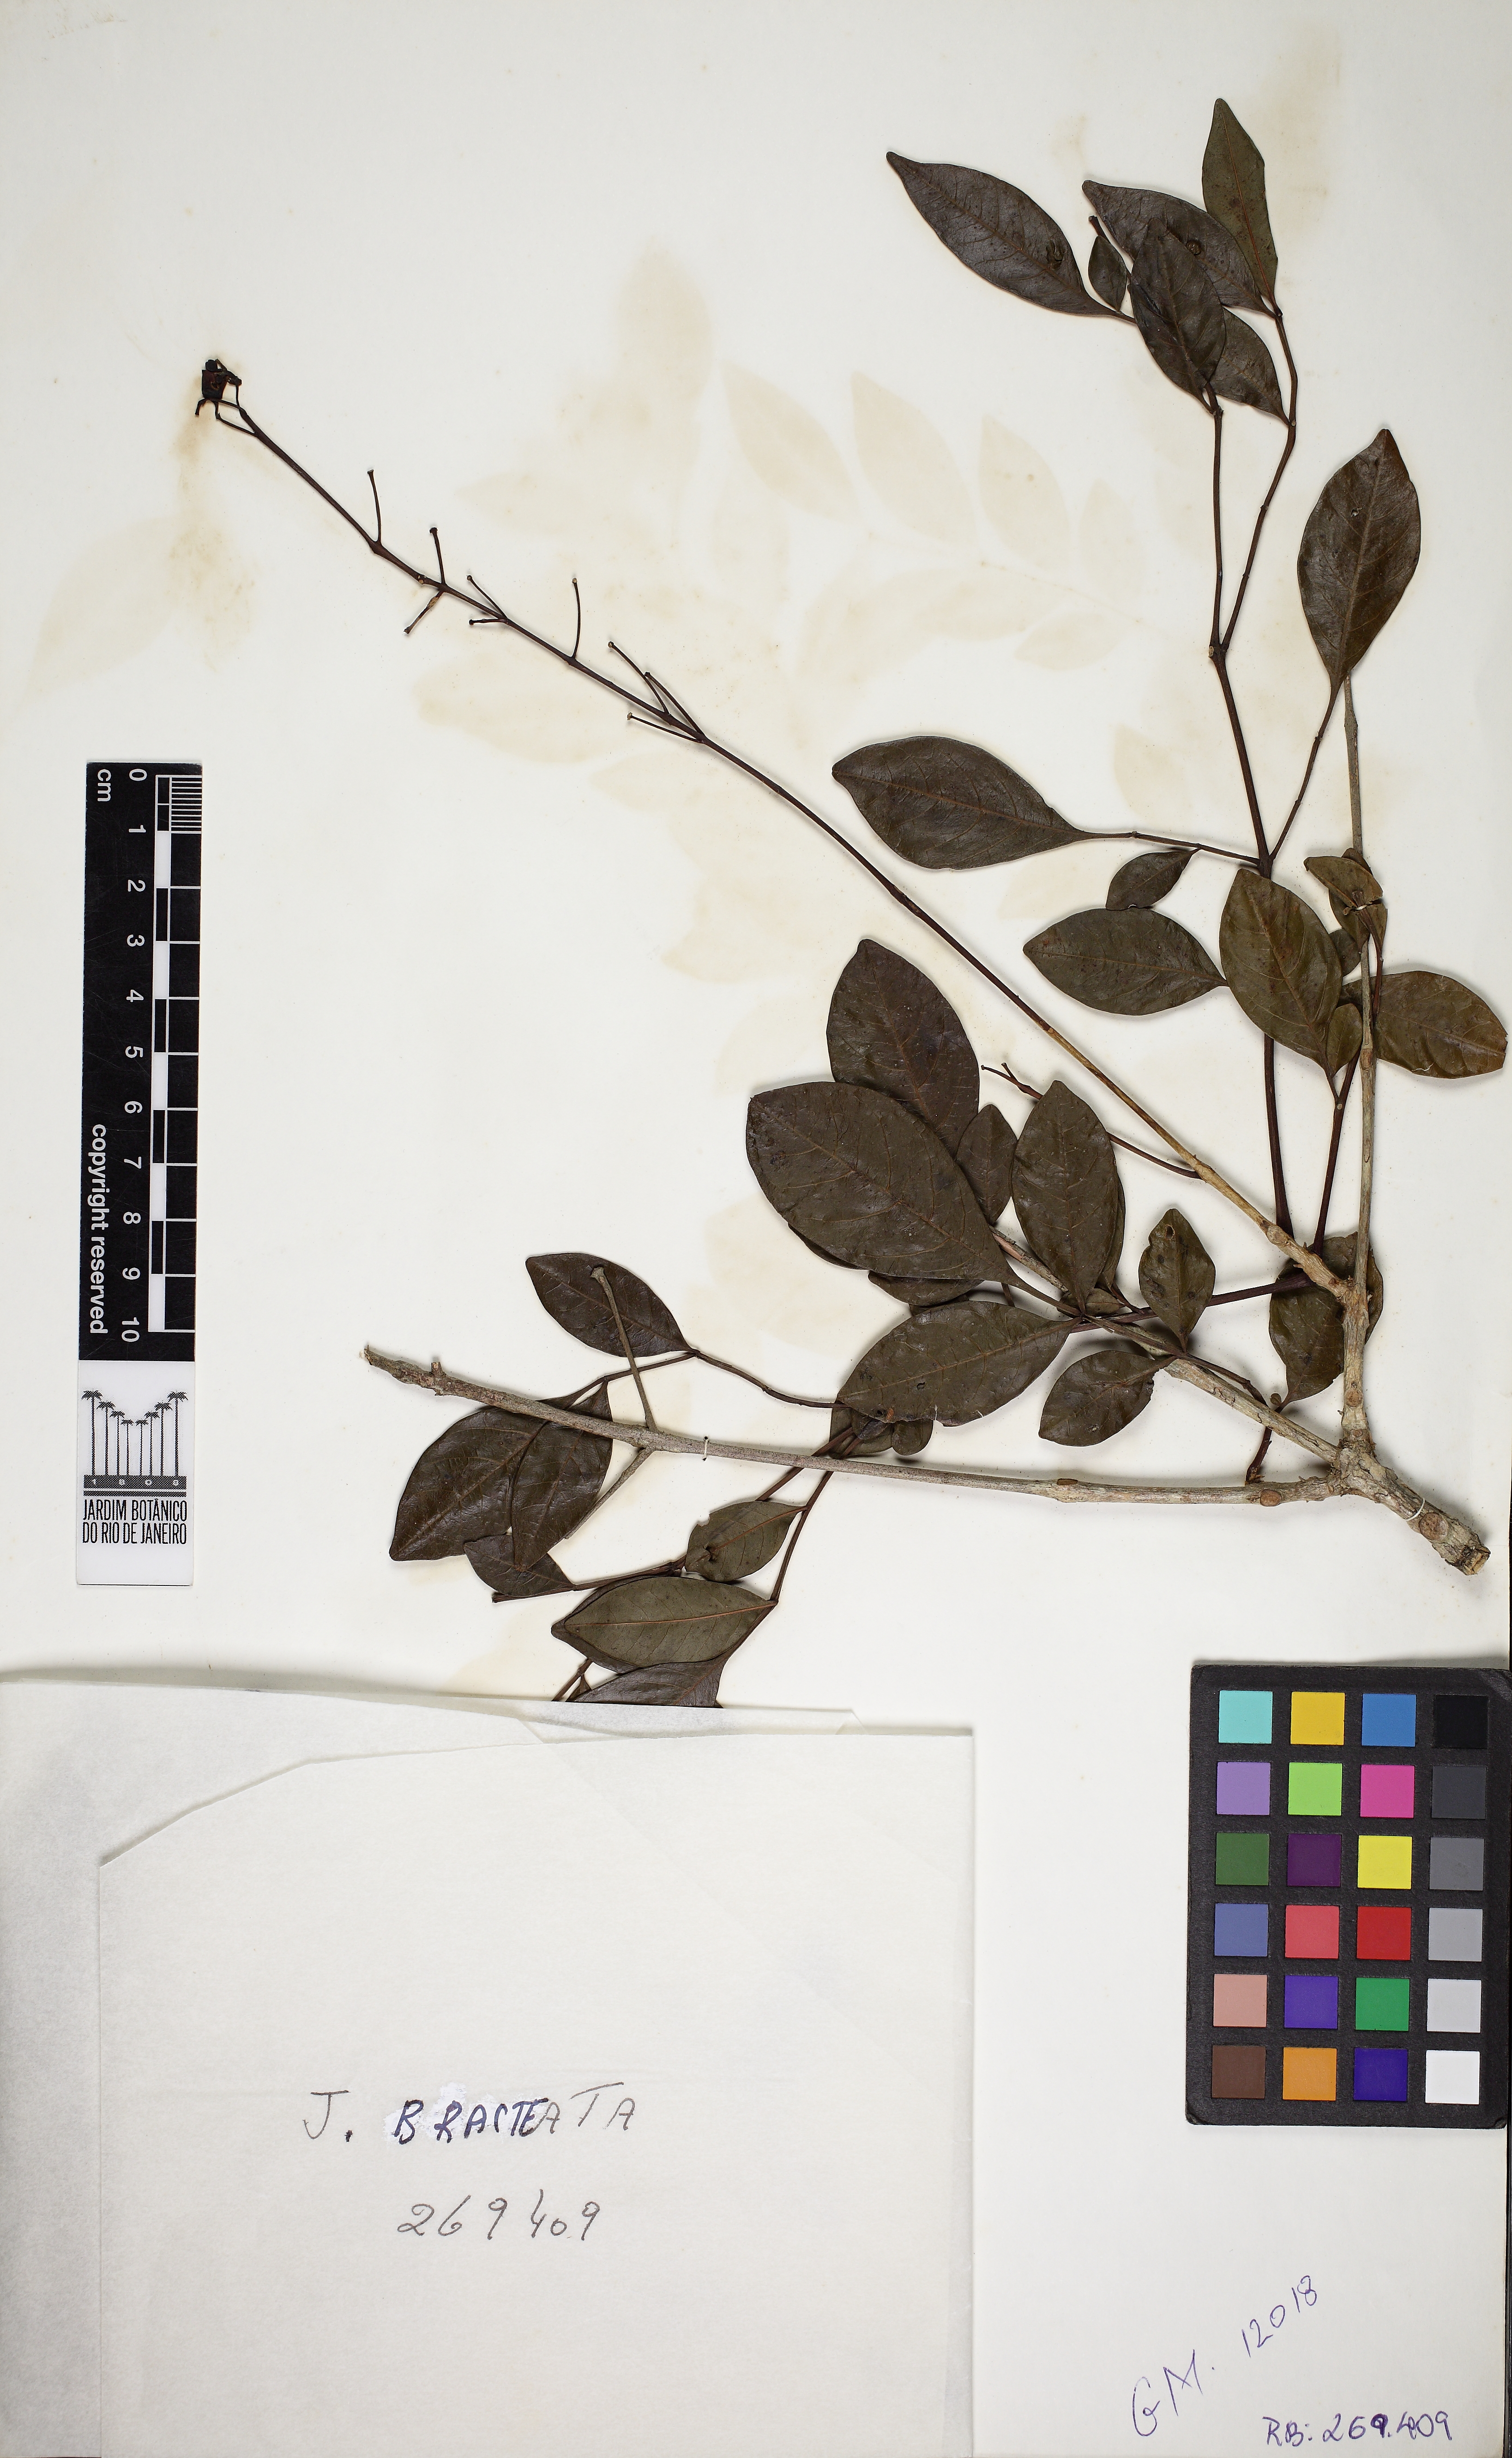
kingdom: Plantae
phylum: Tracheophyta
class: Magnoliopsida
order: Lamiales
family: Bignoniaceae
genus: Jacaranda
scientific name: Jacaranda bracteata
